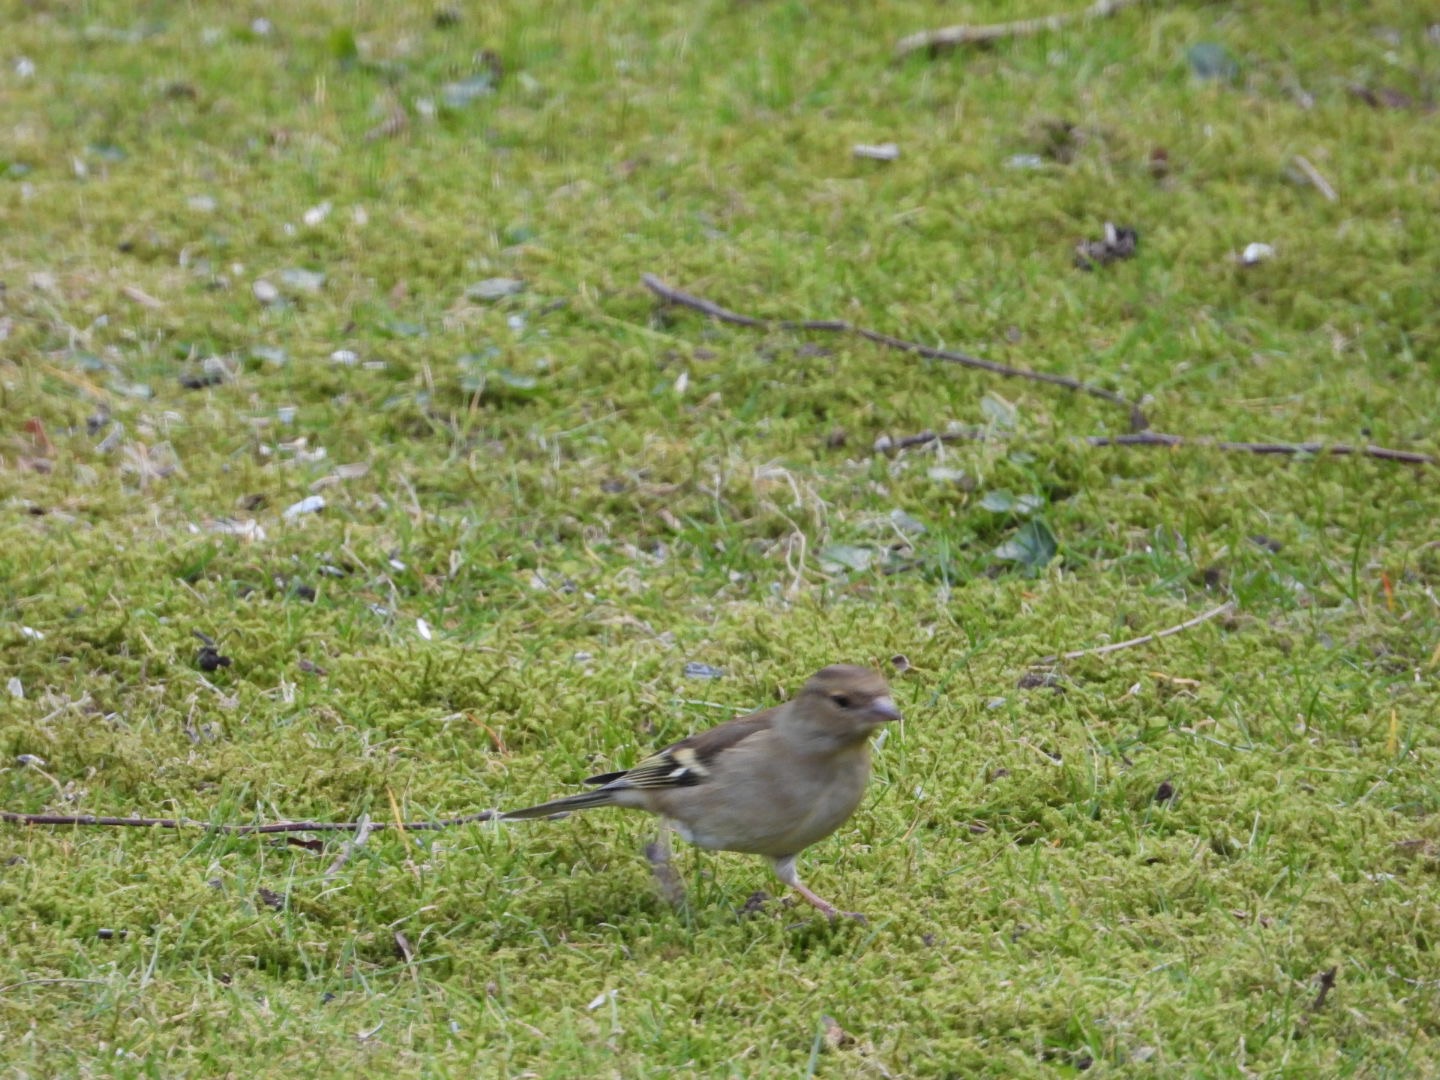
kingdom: Animalia
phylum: Chordata
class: Aves
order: Passeriformes
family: Fringillidae
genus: Fringilla
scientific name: Fringilla coelebs
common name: Bogfinke
